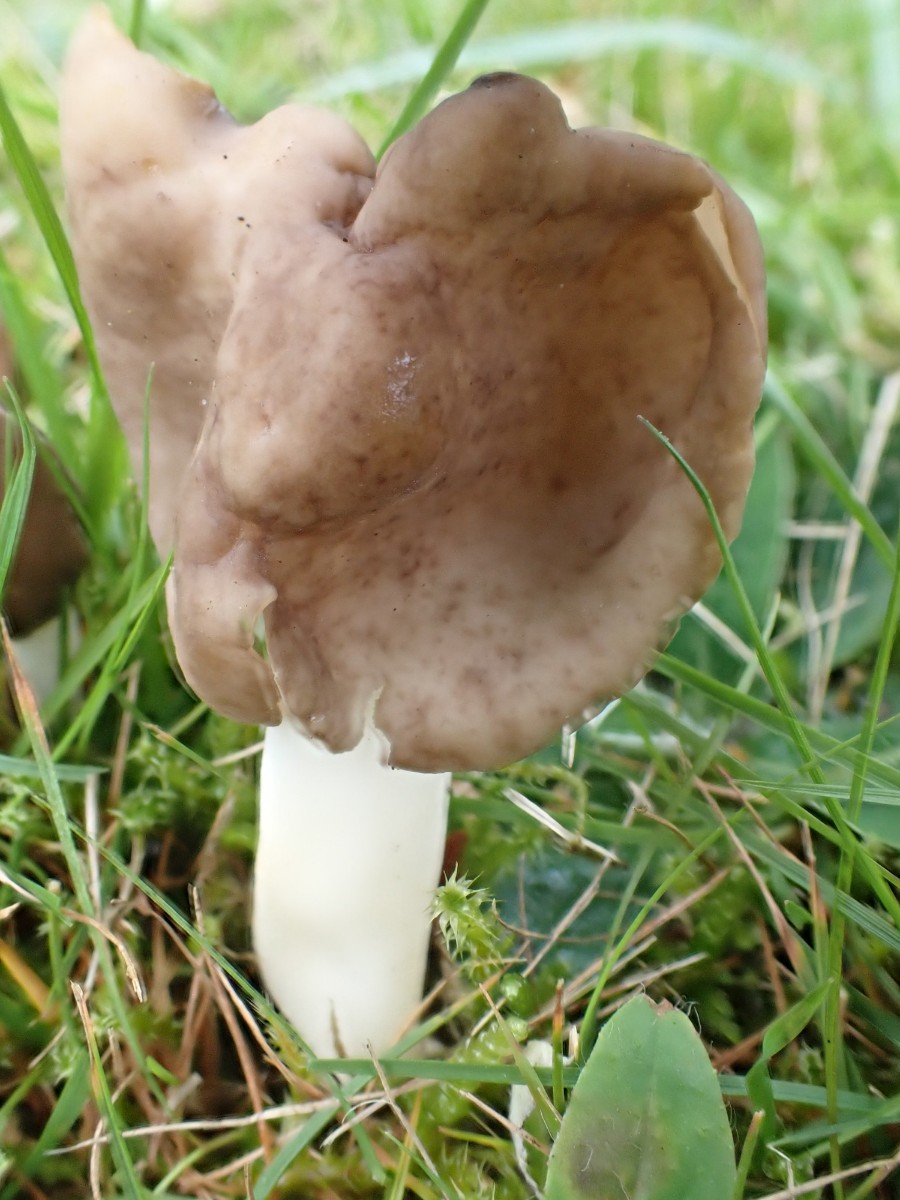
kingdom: Fungi
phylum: Ascomycota
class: Pezizomycetes
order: Pezizales
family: Helvellaceae
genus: Helvella
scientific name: Helvella elastica
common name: elastik-foldhat
